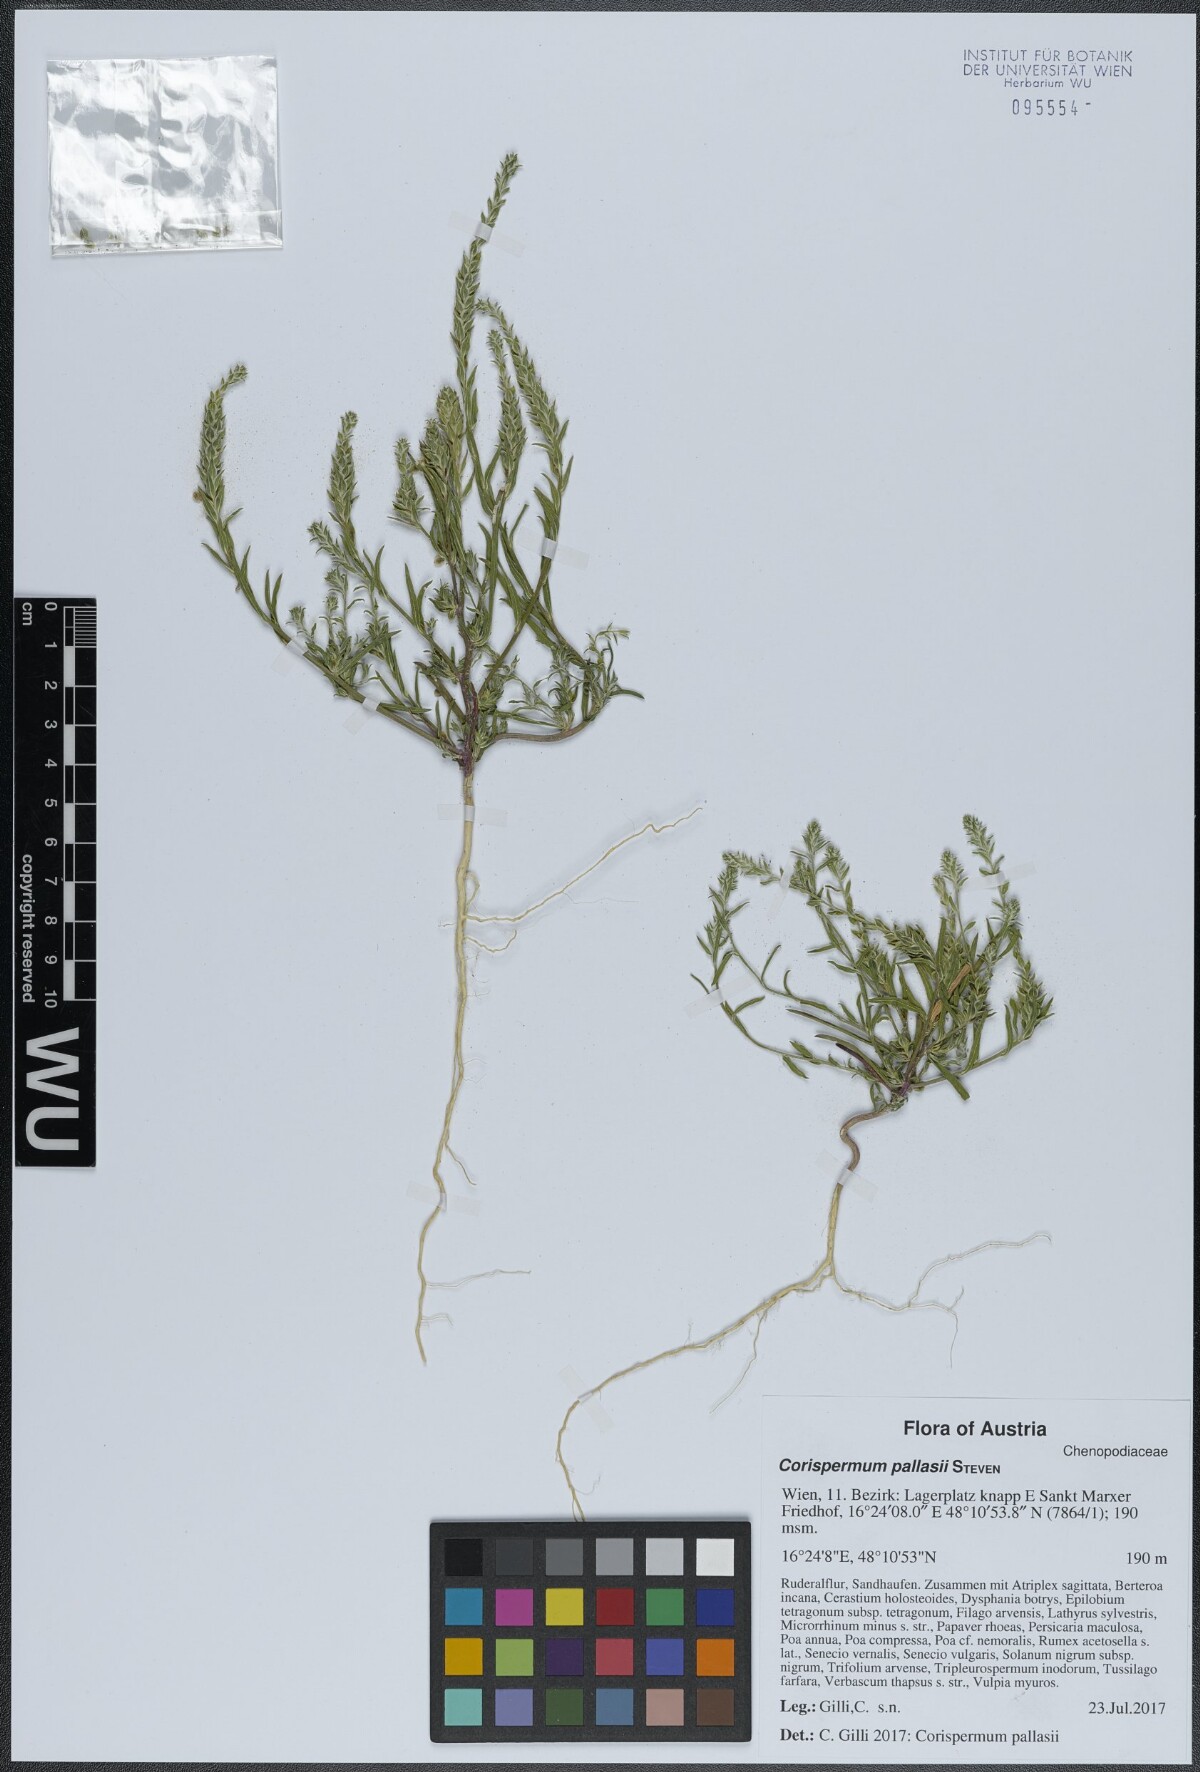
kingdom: Plantae
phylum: Tracheophyta
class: Magnoliopsida
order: Caryophyllales
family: Amaranthaceae
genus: Corispermum
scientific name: Corispermum pallasii
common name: Siberian bugseed
